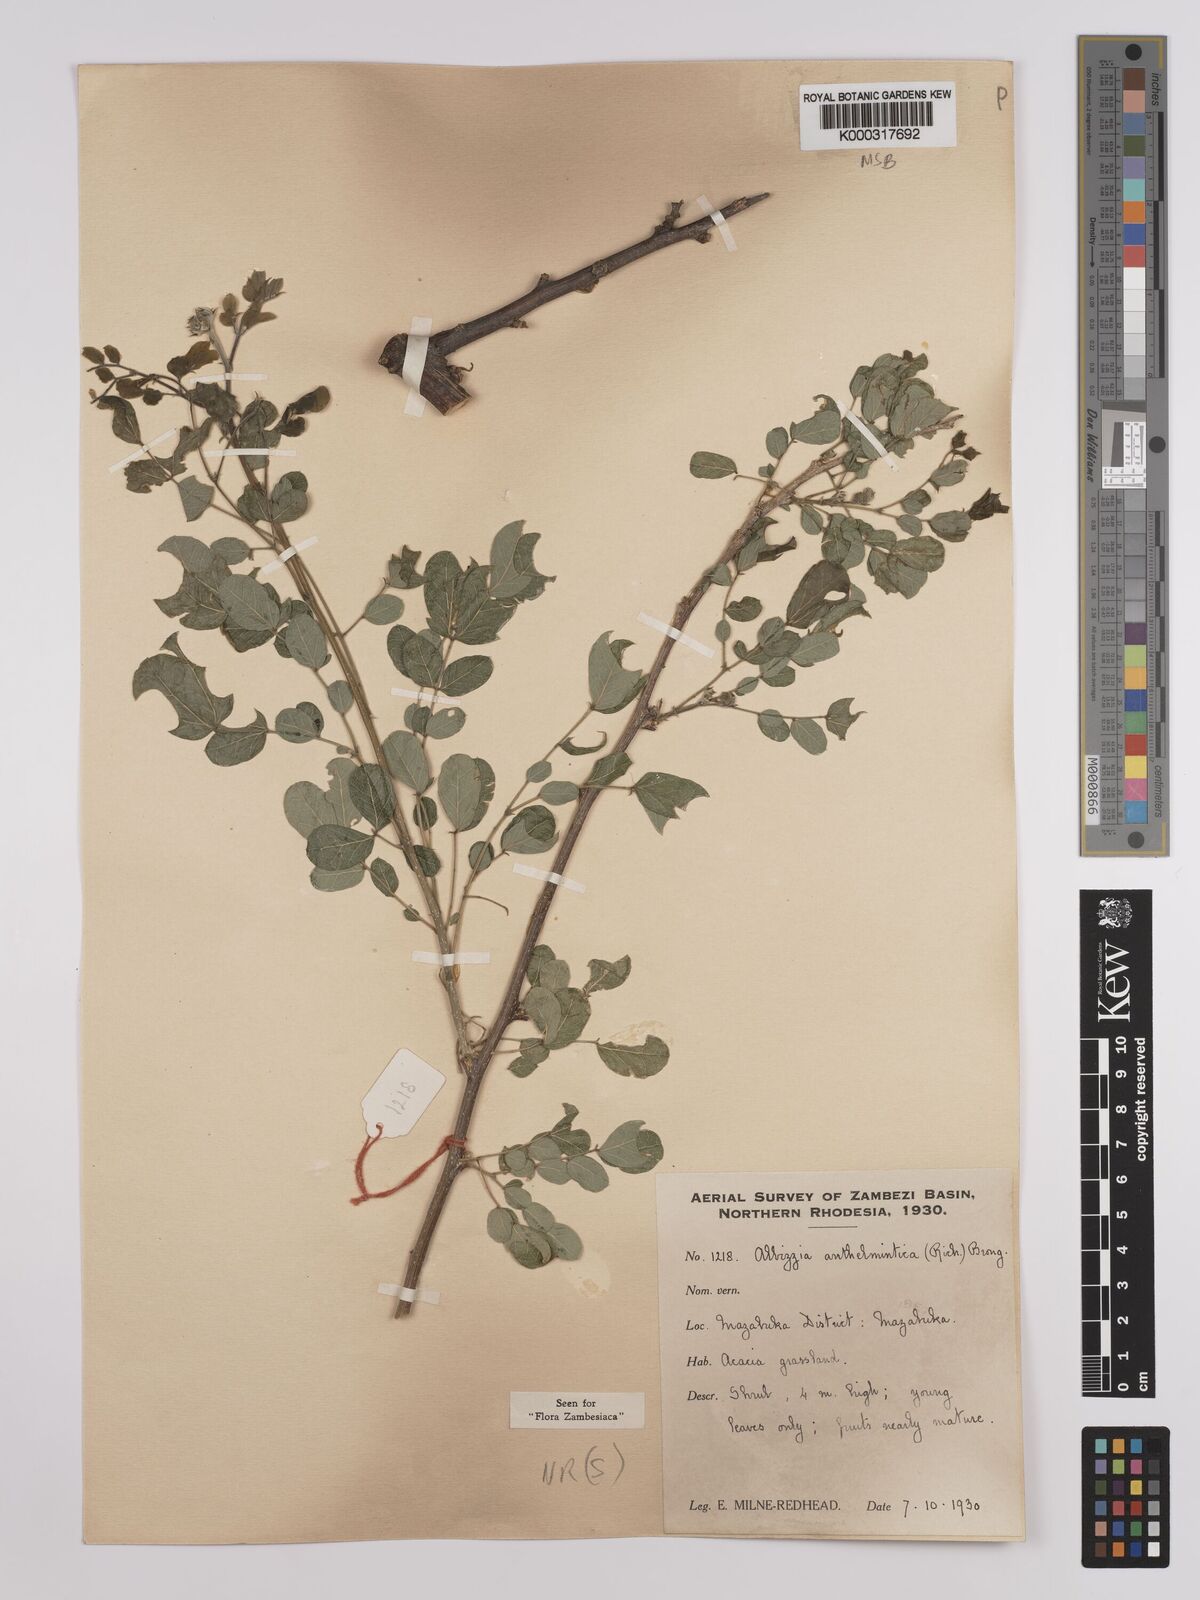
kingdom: Plantae
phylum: Tracheophyta
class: Magnoliopsida
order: Fabales
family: Fabaceae
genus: Albizia
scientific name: Albizia anthelmintica
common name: Worm-bark false-thorn
